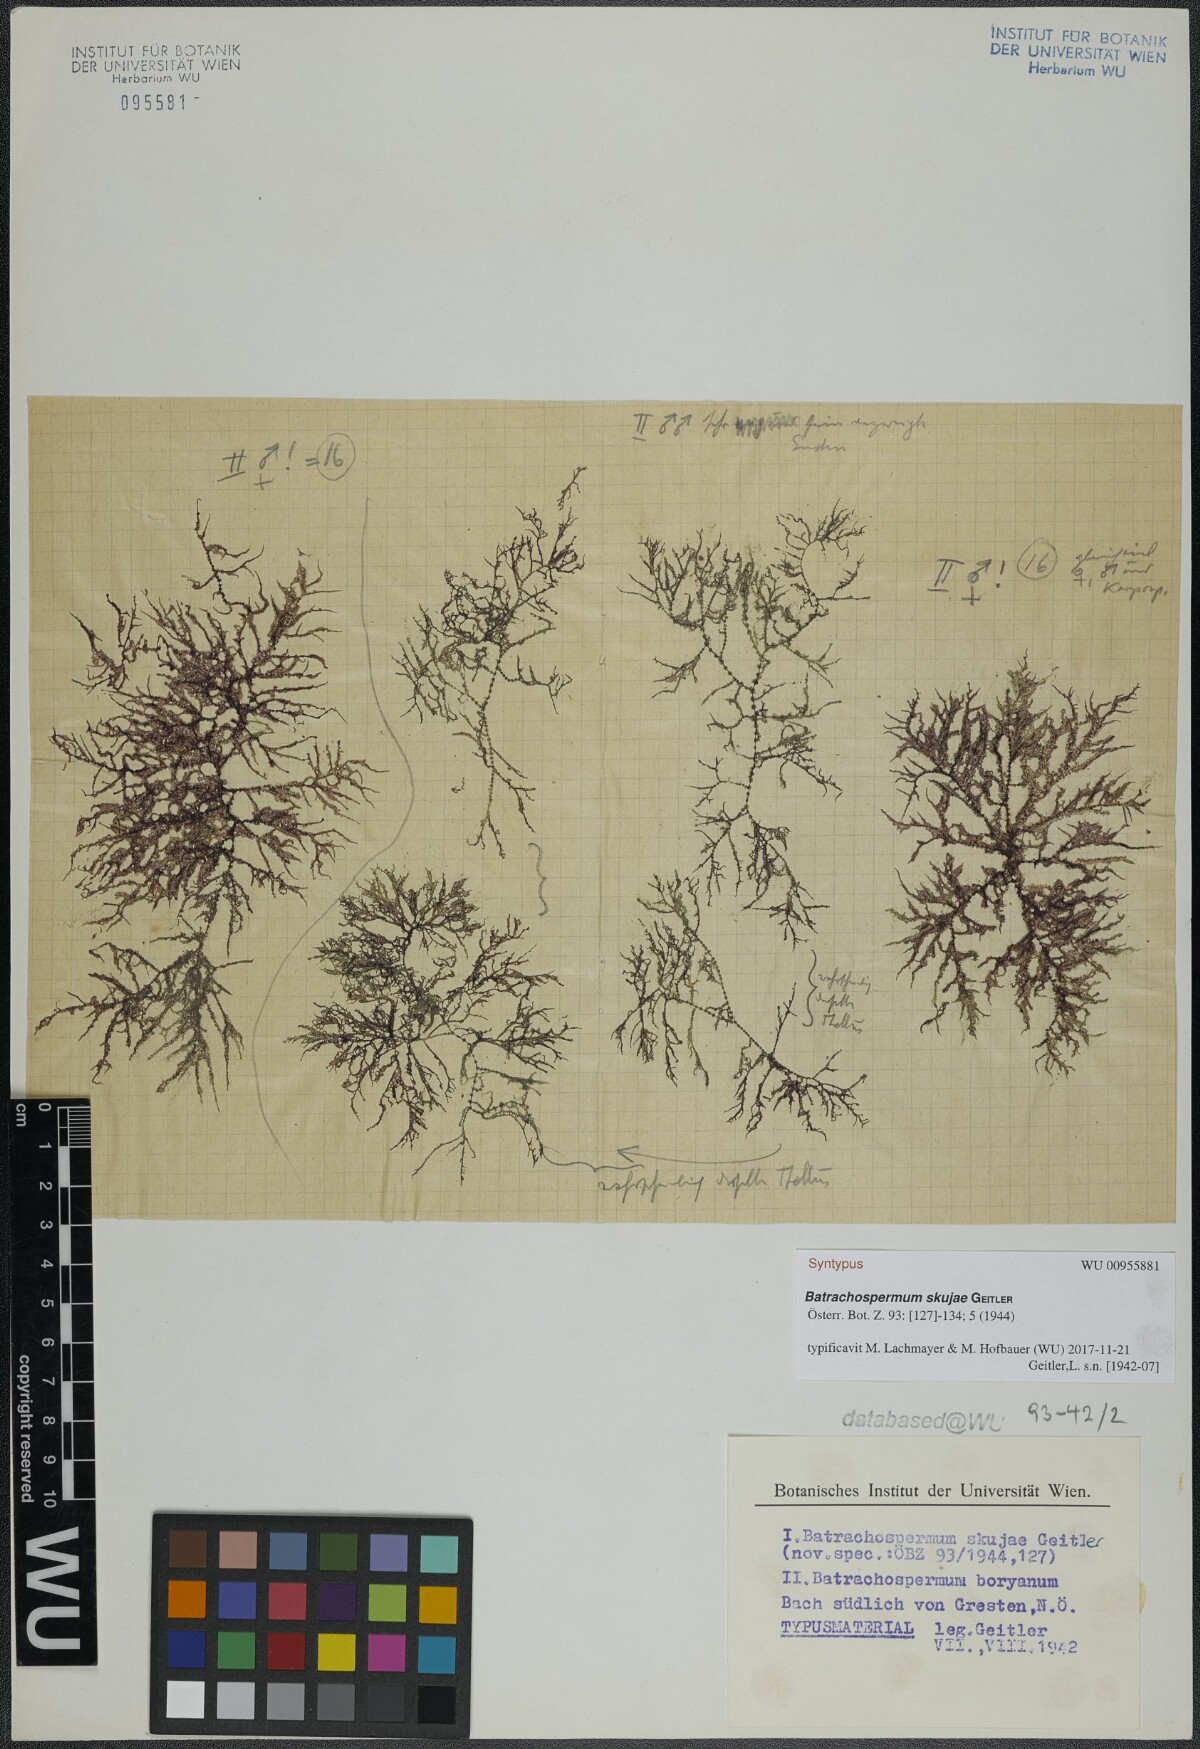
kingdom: Plantae
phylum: Rhodophyta
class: Florideophyceae
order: Batrachospermales
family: Batrachospermaceae
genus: Batrachospermum
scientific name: Batrachospermum gelatinosum
